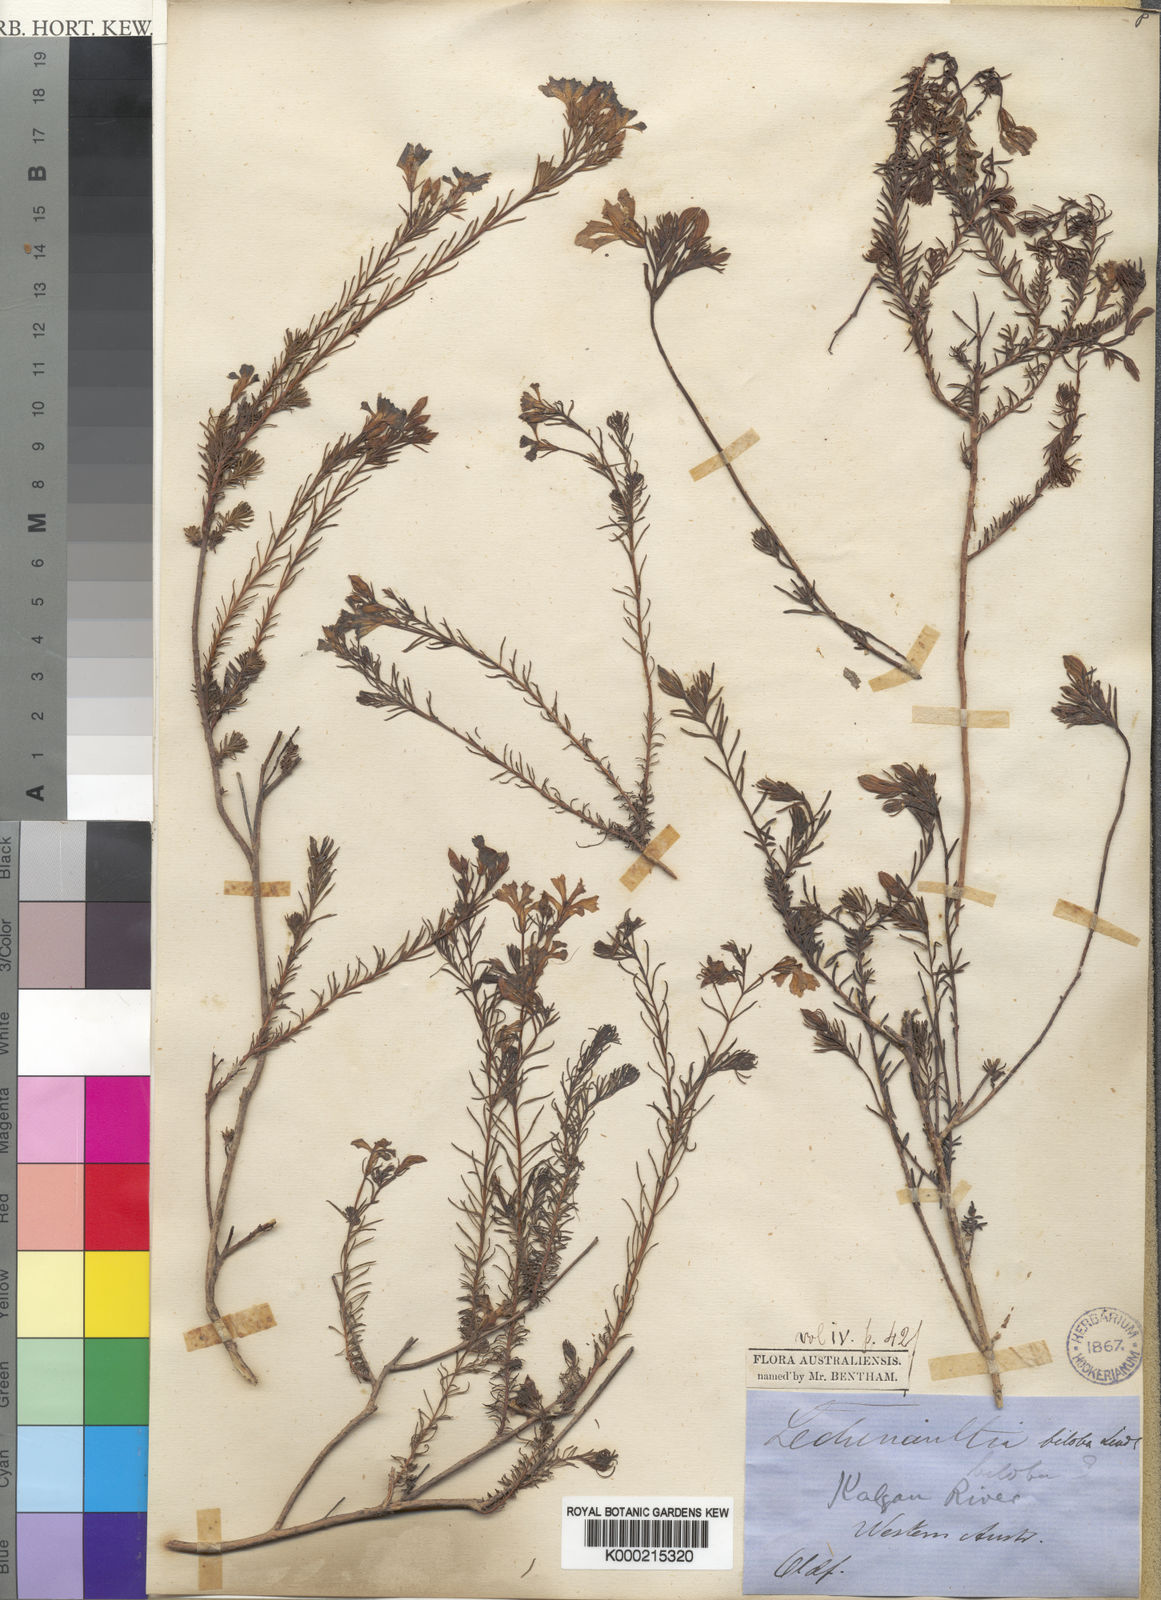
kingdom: Plantae
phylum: Tracheophyta
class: Magnoliopsida
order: Asterales
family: Goodeniaceae
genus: Leschenaultia
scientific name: Leschenaultia biloba
